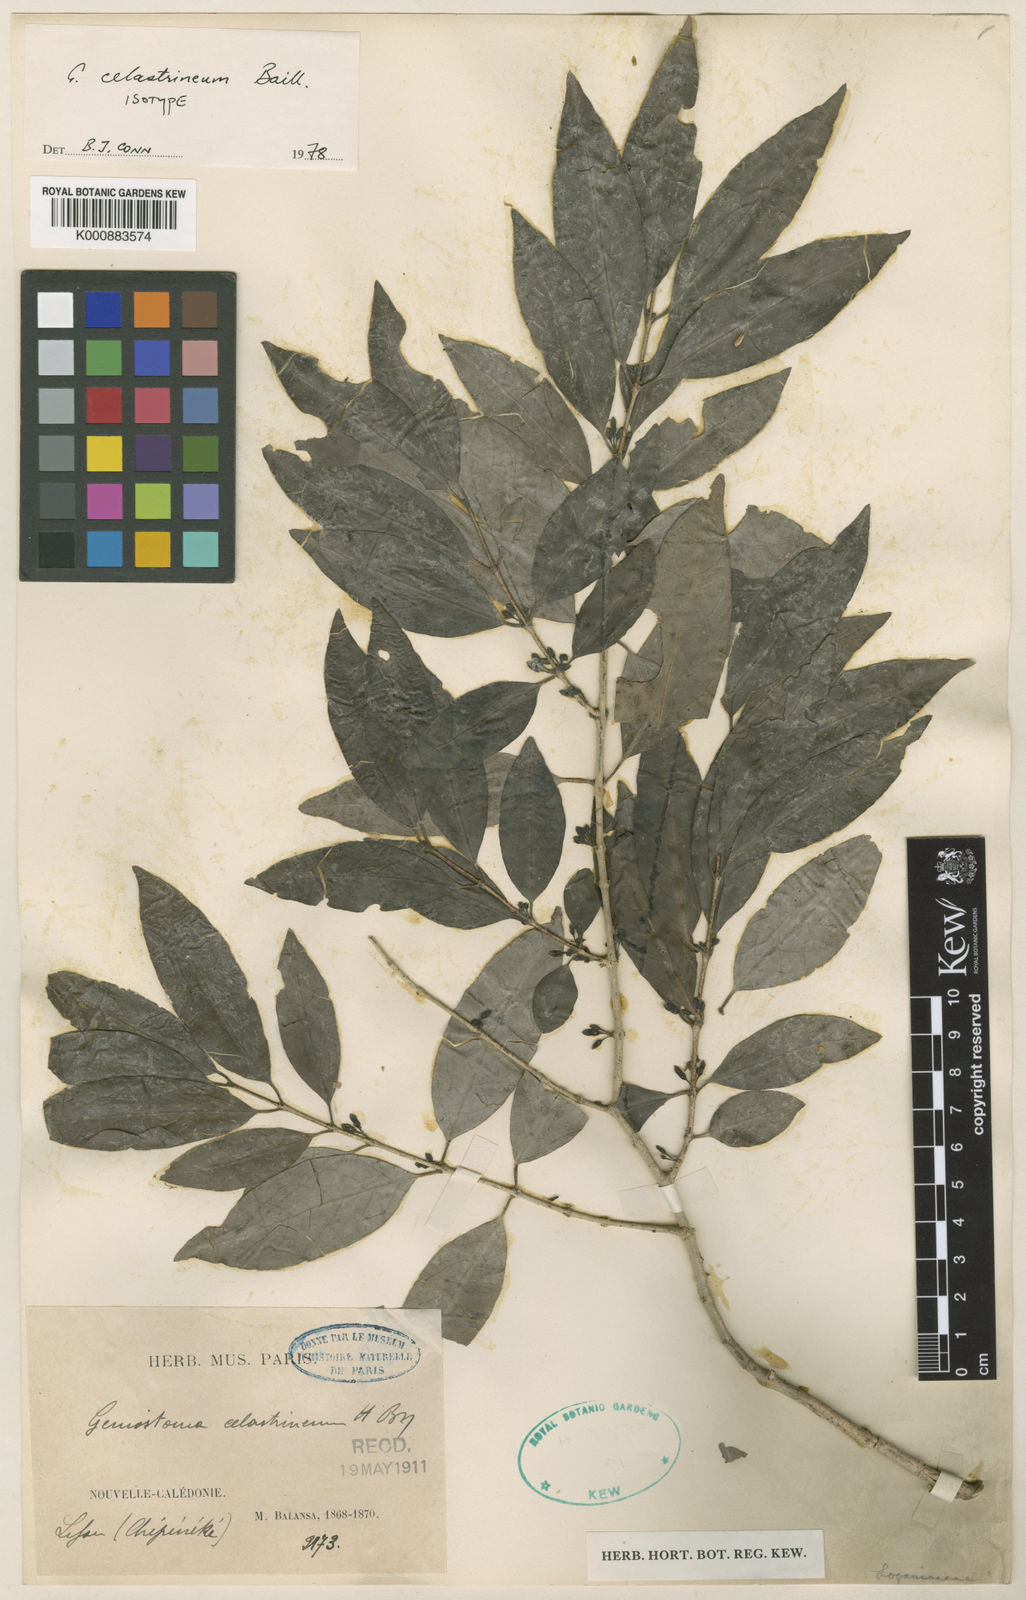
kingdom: Plantae
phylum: Tracheophyta
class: Magnoliopsida
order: Gentianales
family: Loganiaceae
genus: Geniostoma
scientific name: Geniostoma celastrineum
